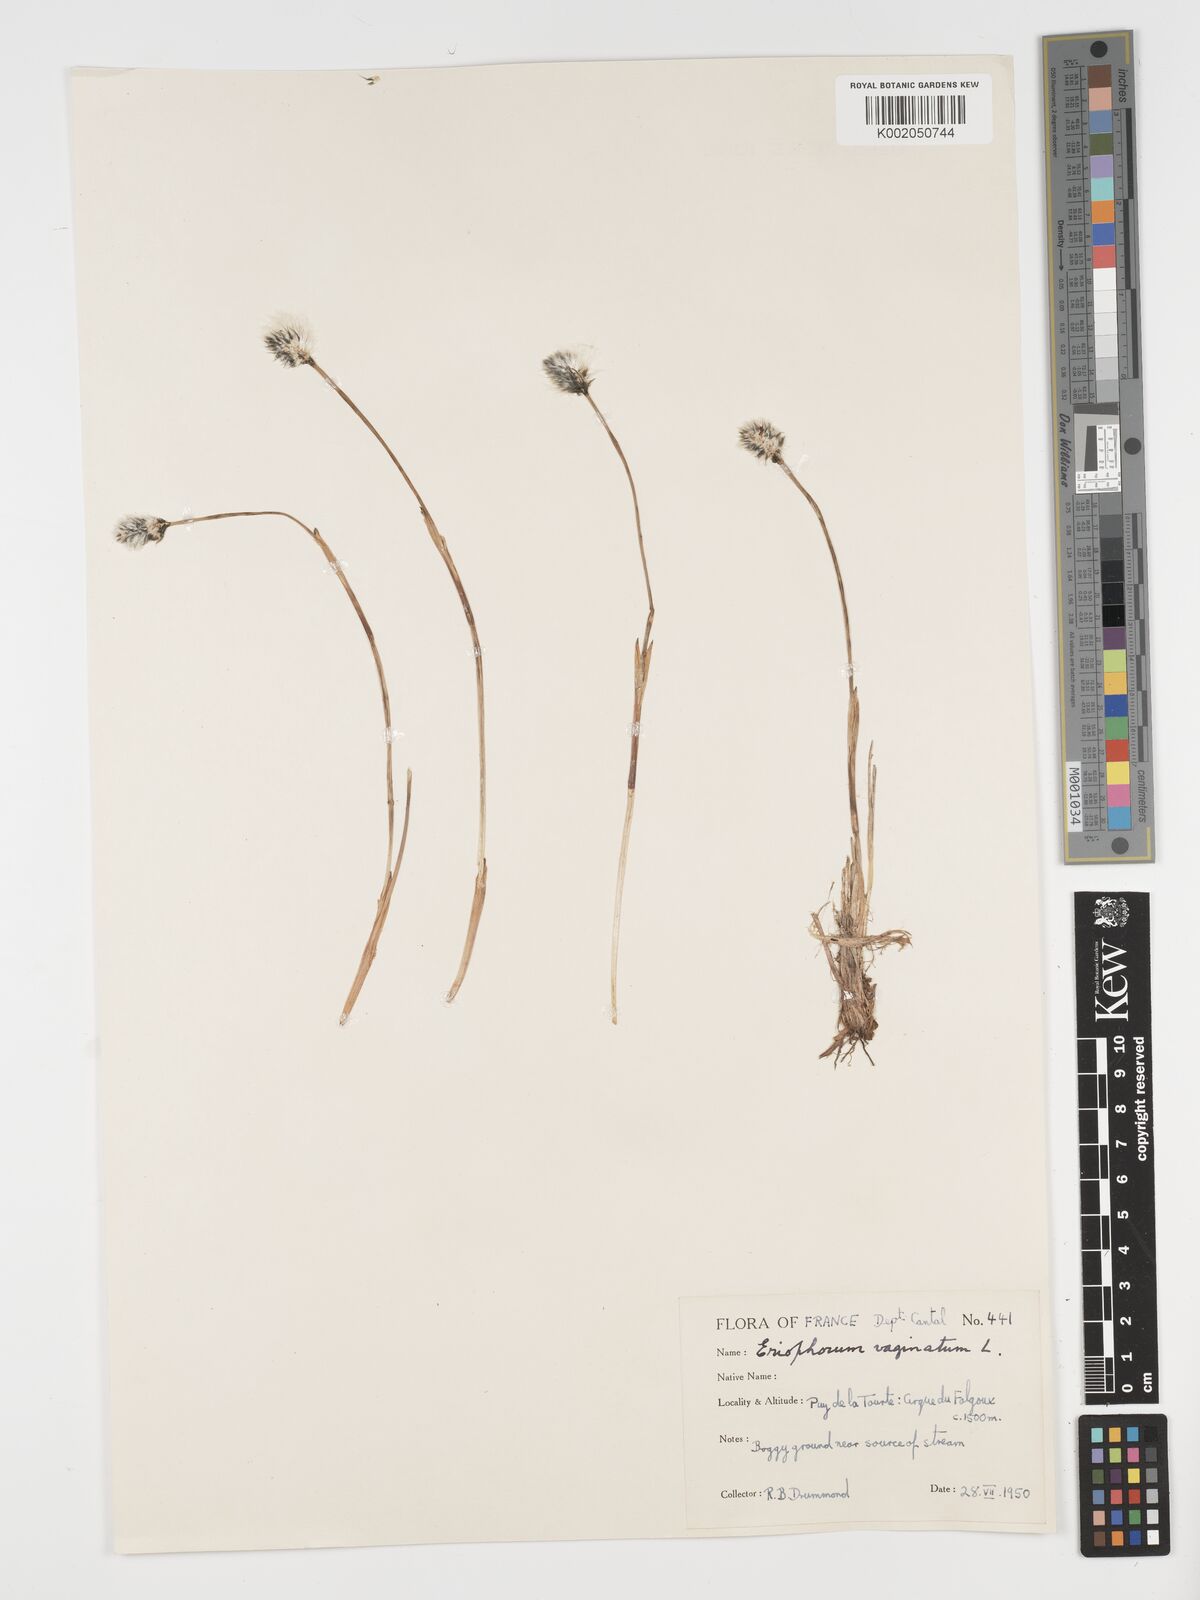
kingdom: Plantae
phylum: Tracheophyta
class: Liliopsida
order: Poales
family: Cyperaceae
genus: Eriophorum
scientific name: Eriophorum vaginatum
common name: Hare's-tail cottongrass
